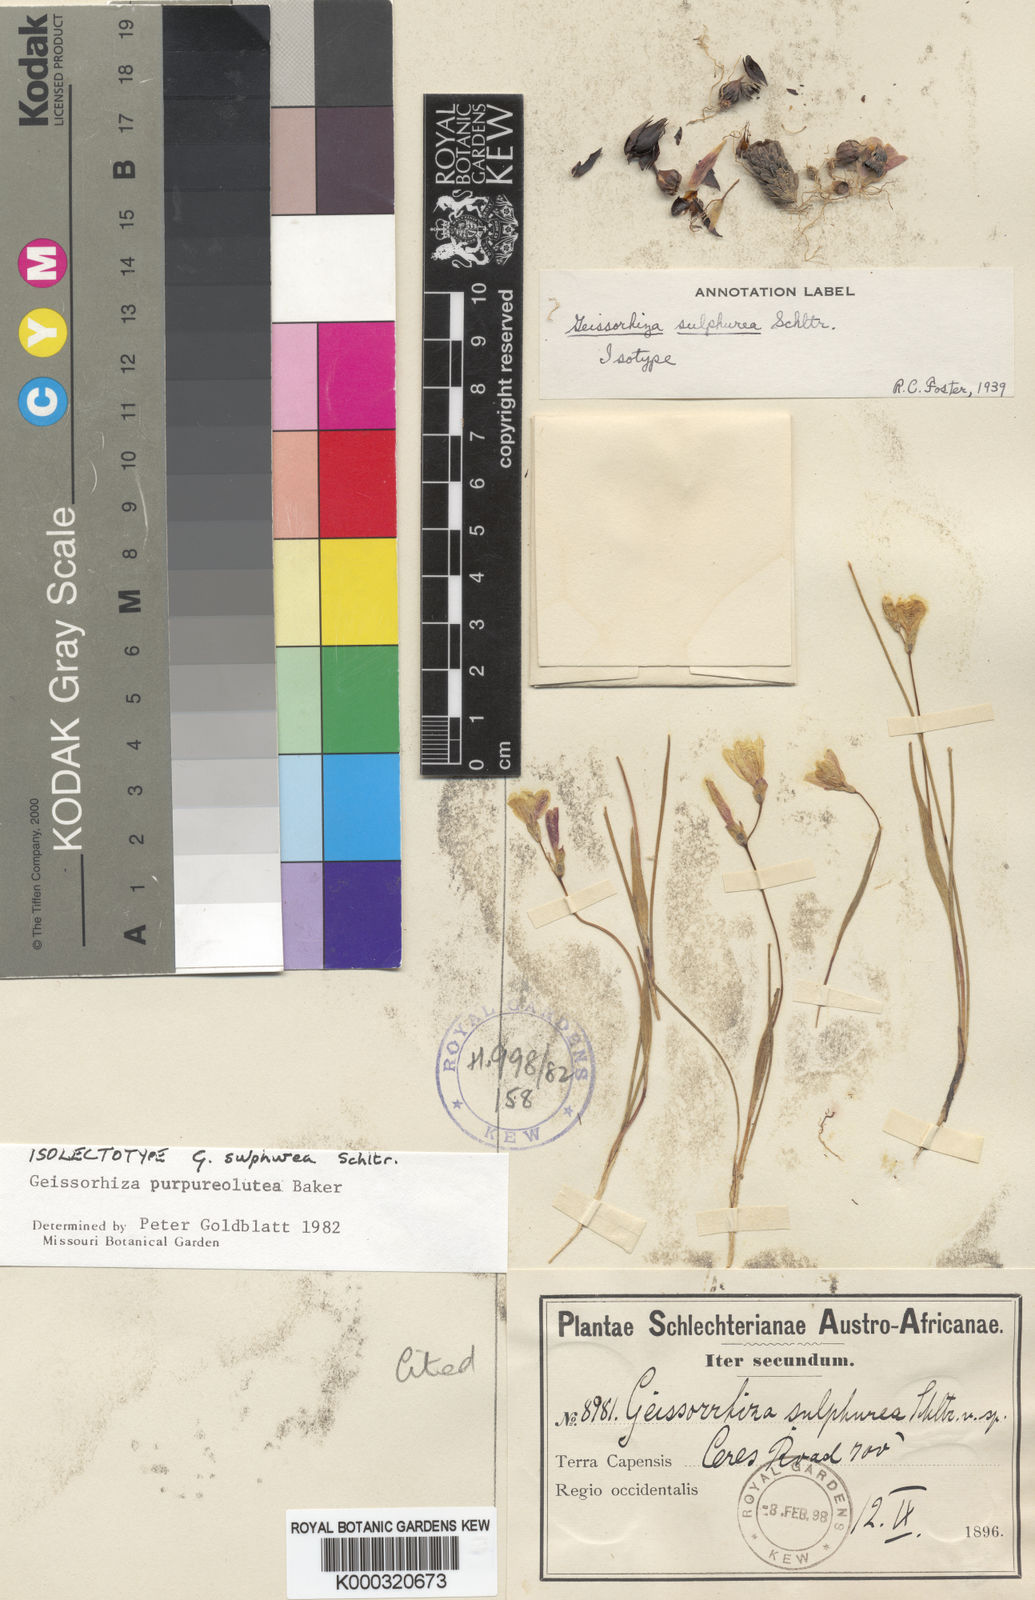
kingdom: Plantae
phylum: Tracheophyta
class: Liliopsida
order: Asparagales
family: Iridaceae
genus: Geissorhiza
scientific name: Geissorhiza purpureolutea
